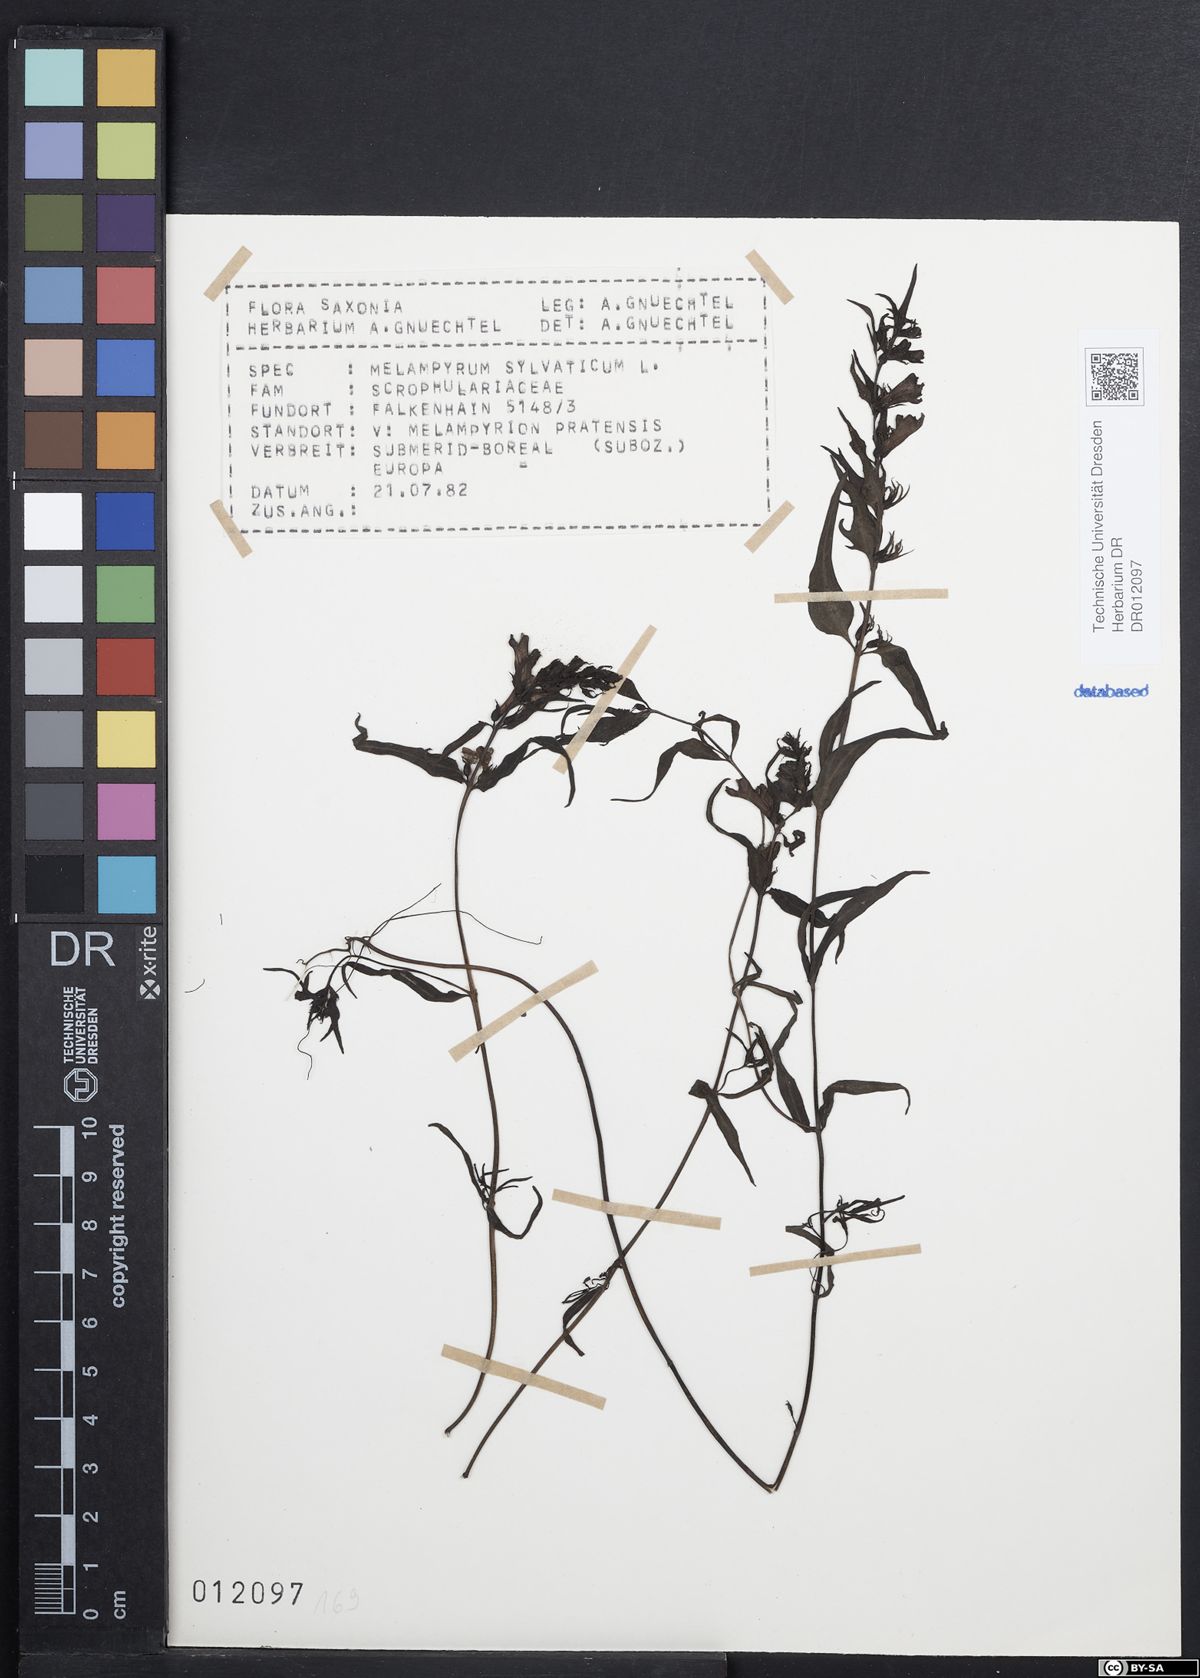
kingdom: Plantae
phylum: Tracheophyta
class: Magnoliopsida
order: Lamiales
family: Orobanchaceae
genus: Melampyrum
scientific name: Melampyrum sylvaticum
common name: Small cow-wheat
